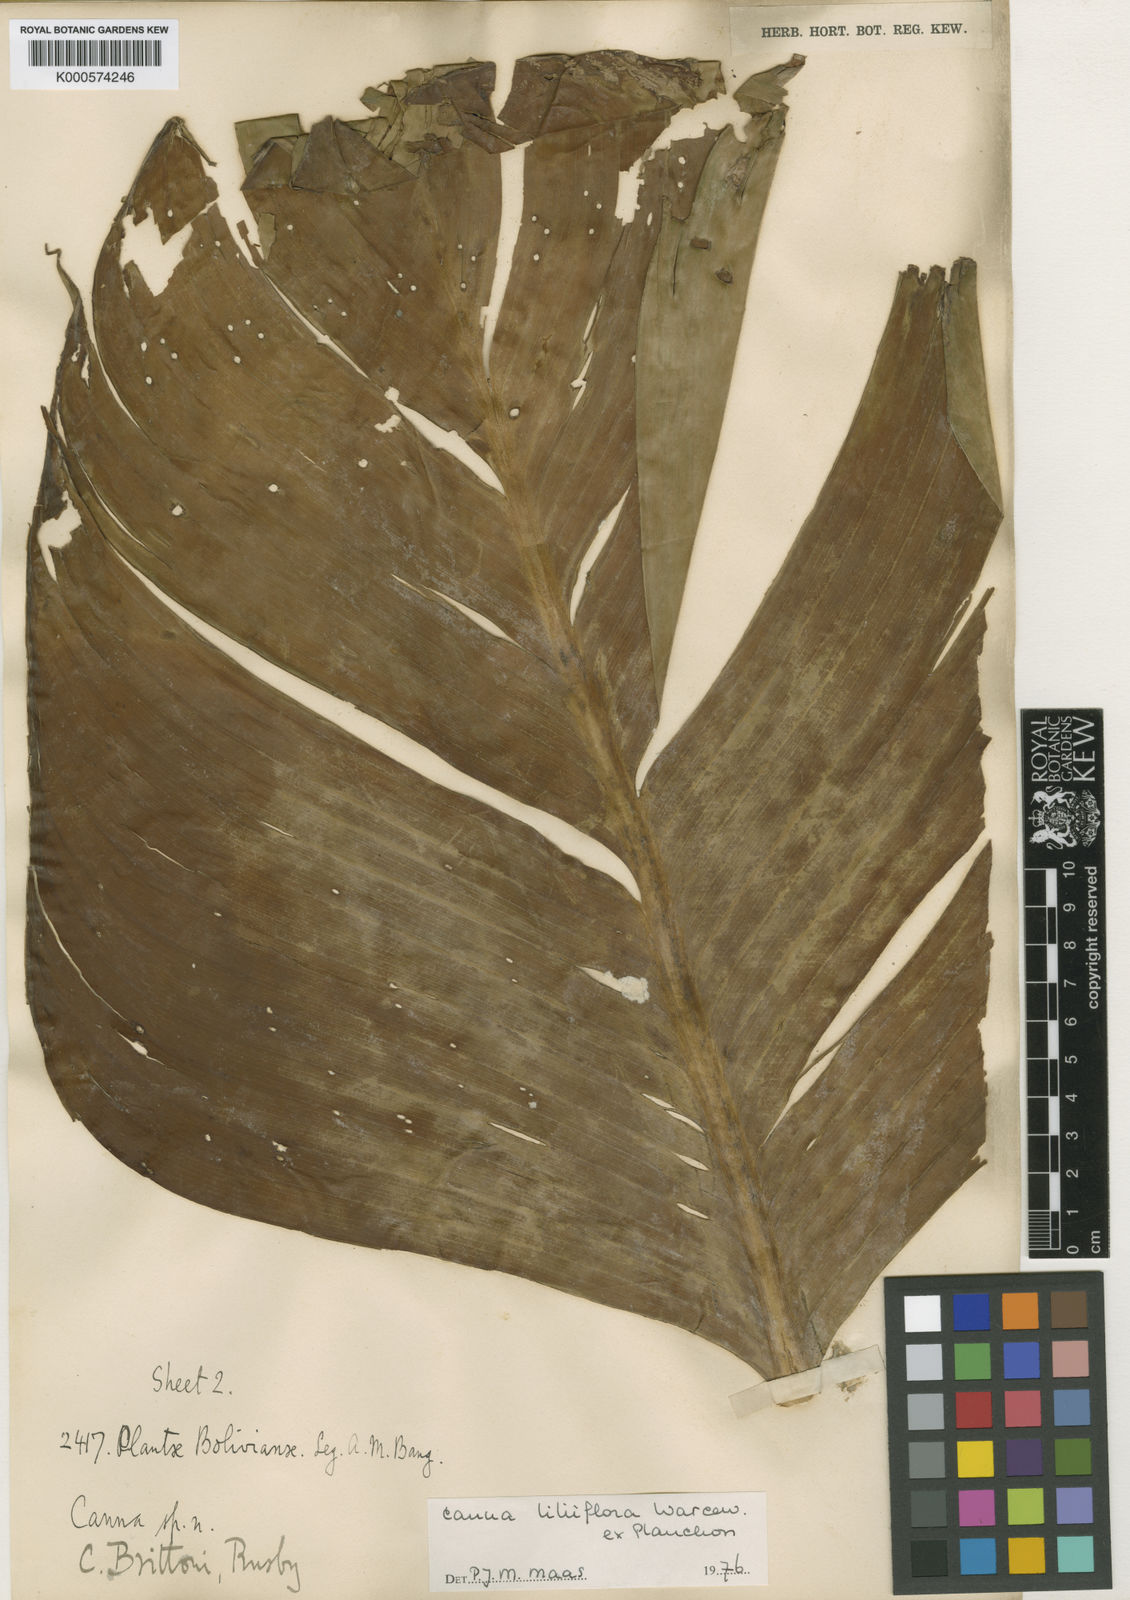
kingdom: Plantae
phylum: Tracheophyta
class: Liliopsida
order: Zingiberales
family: Cannaceae
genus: Canna
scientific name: Canna liliiflora
